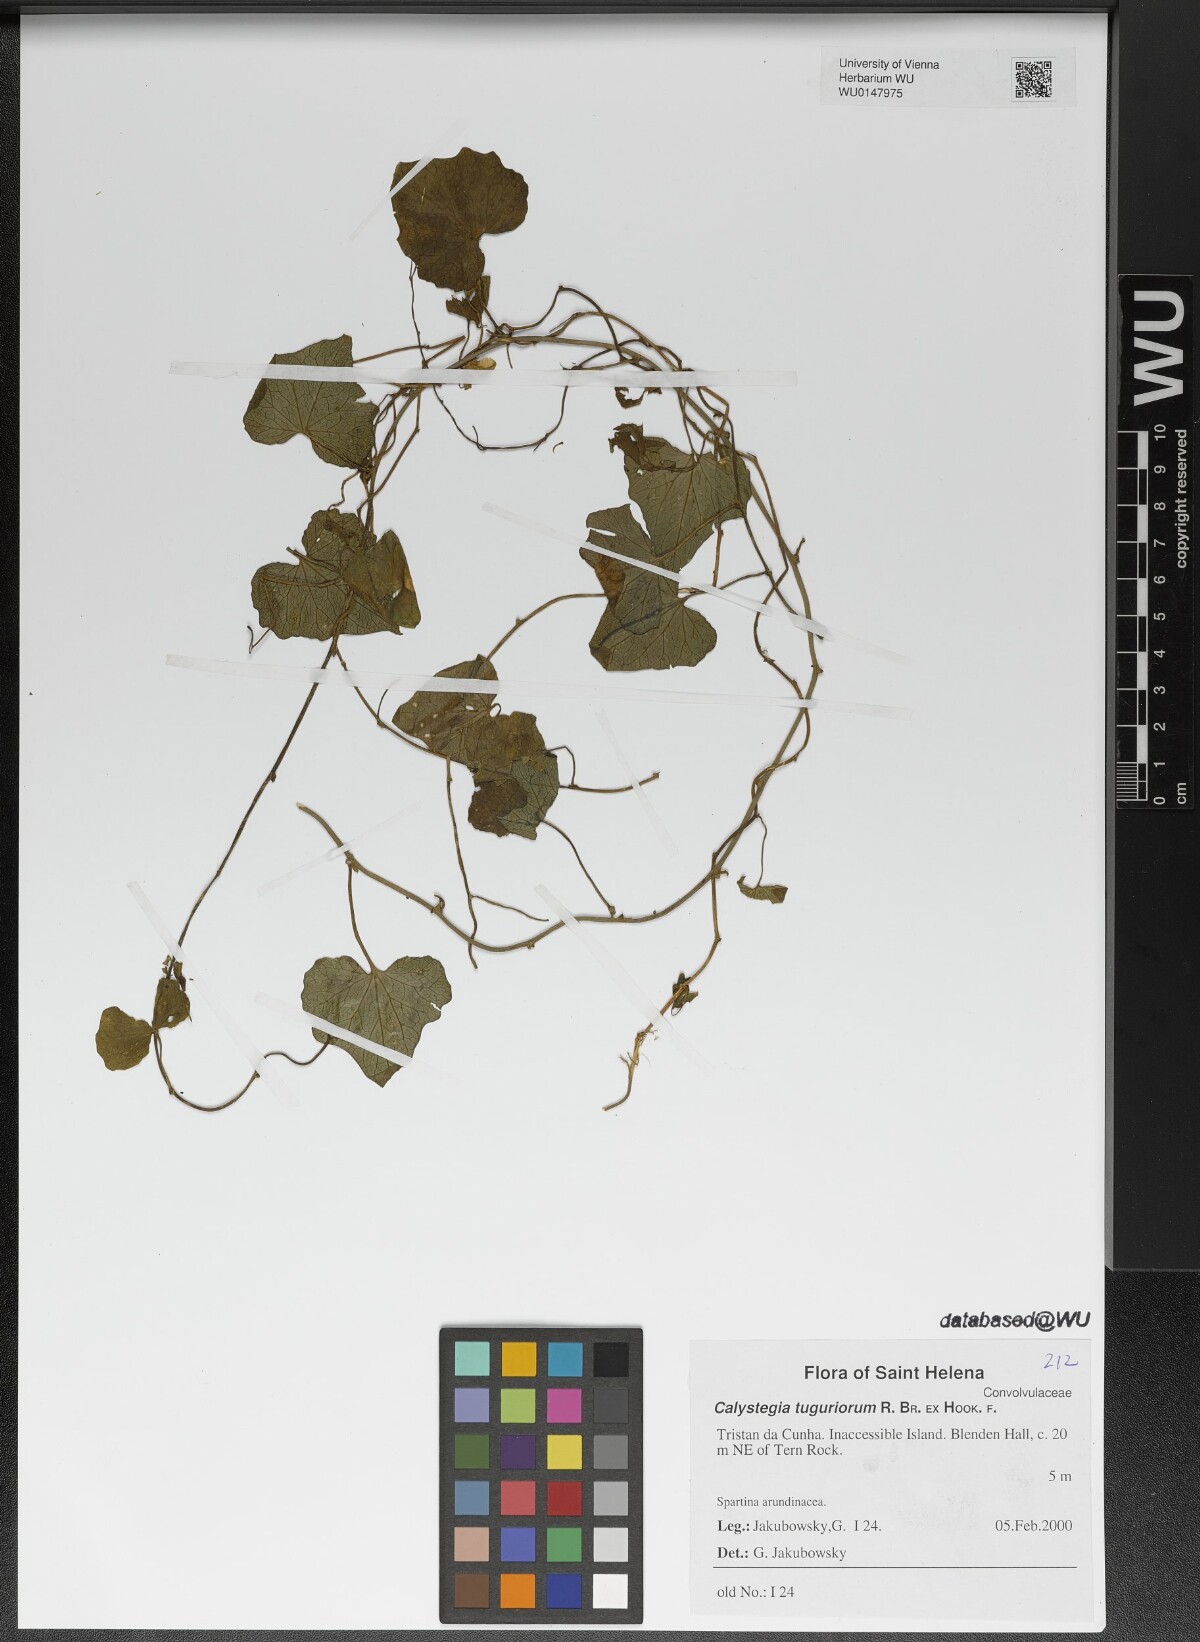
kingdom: Plantae
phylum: Tracheophyta
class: Magnoliopsida
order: Solanales
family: Convolvulaceae
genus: Calystegia
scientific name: Calystegia tuguriorum
